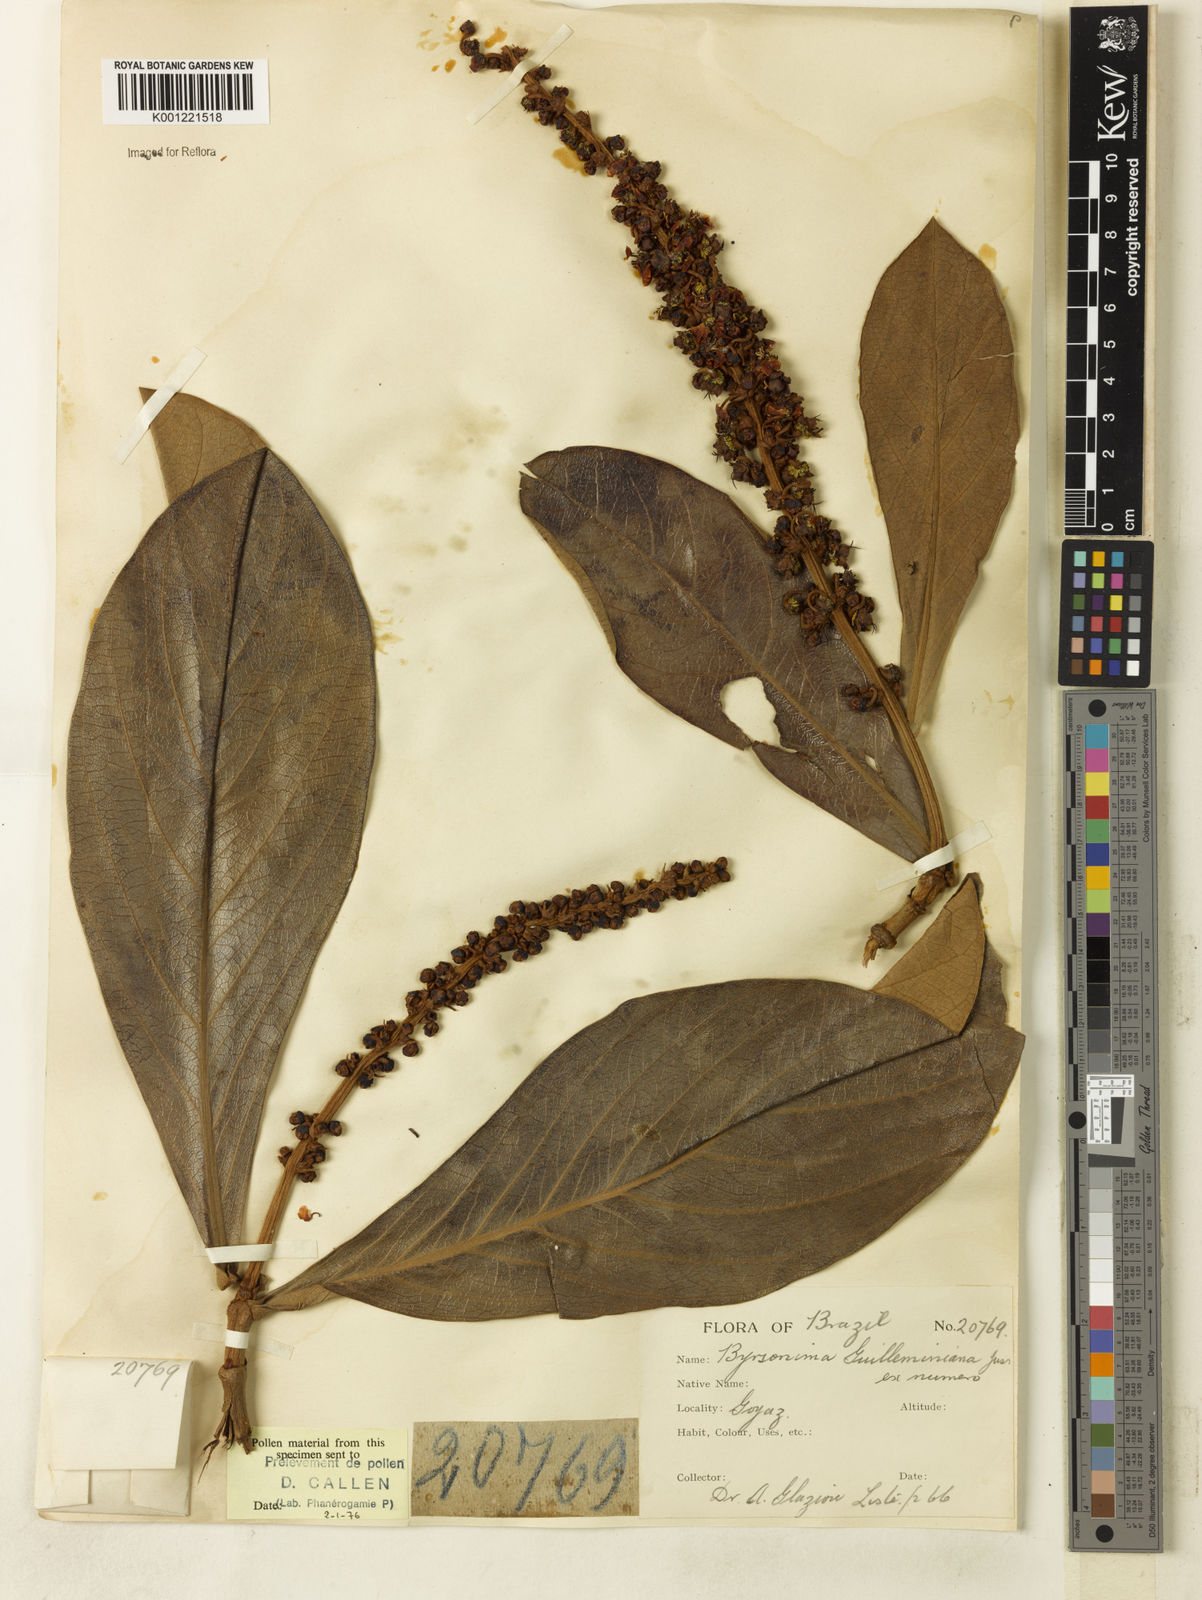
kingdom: Plantae
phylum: Tracheophyta
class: Magnoliopsida
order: Malpighiales
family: Malpighiaceae
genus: Byrsonima
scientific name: Byrsonima guilleminiana
